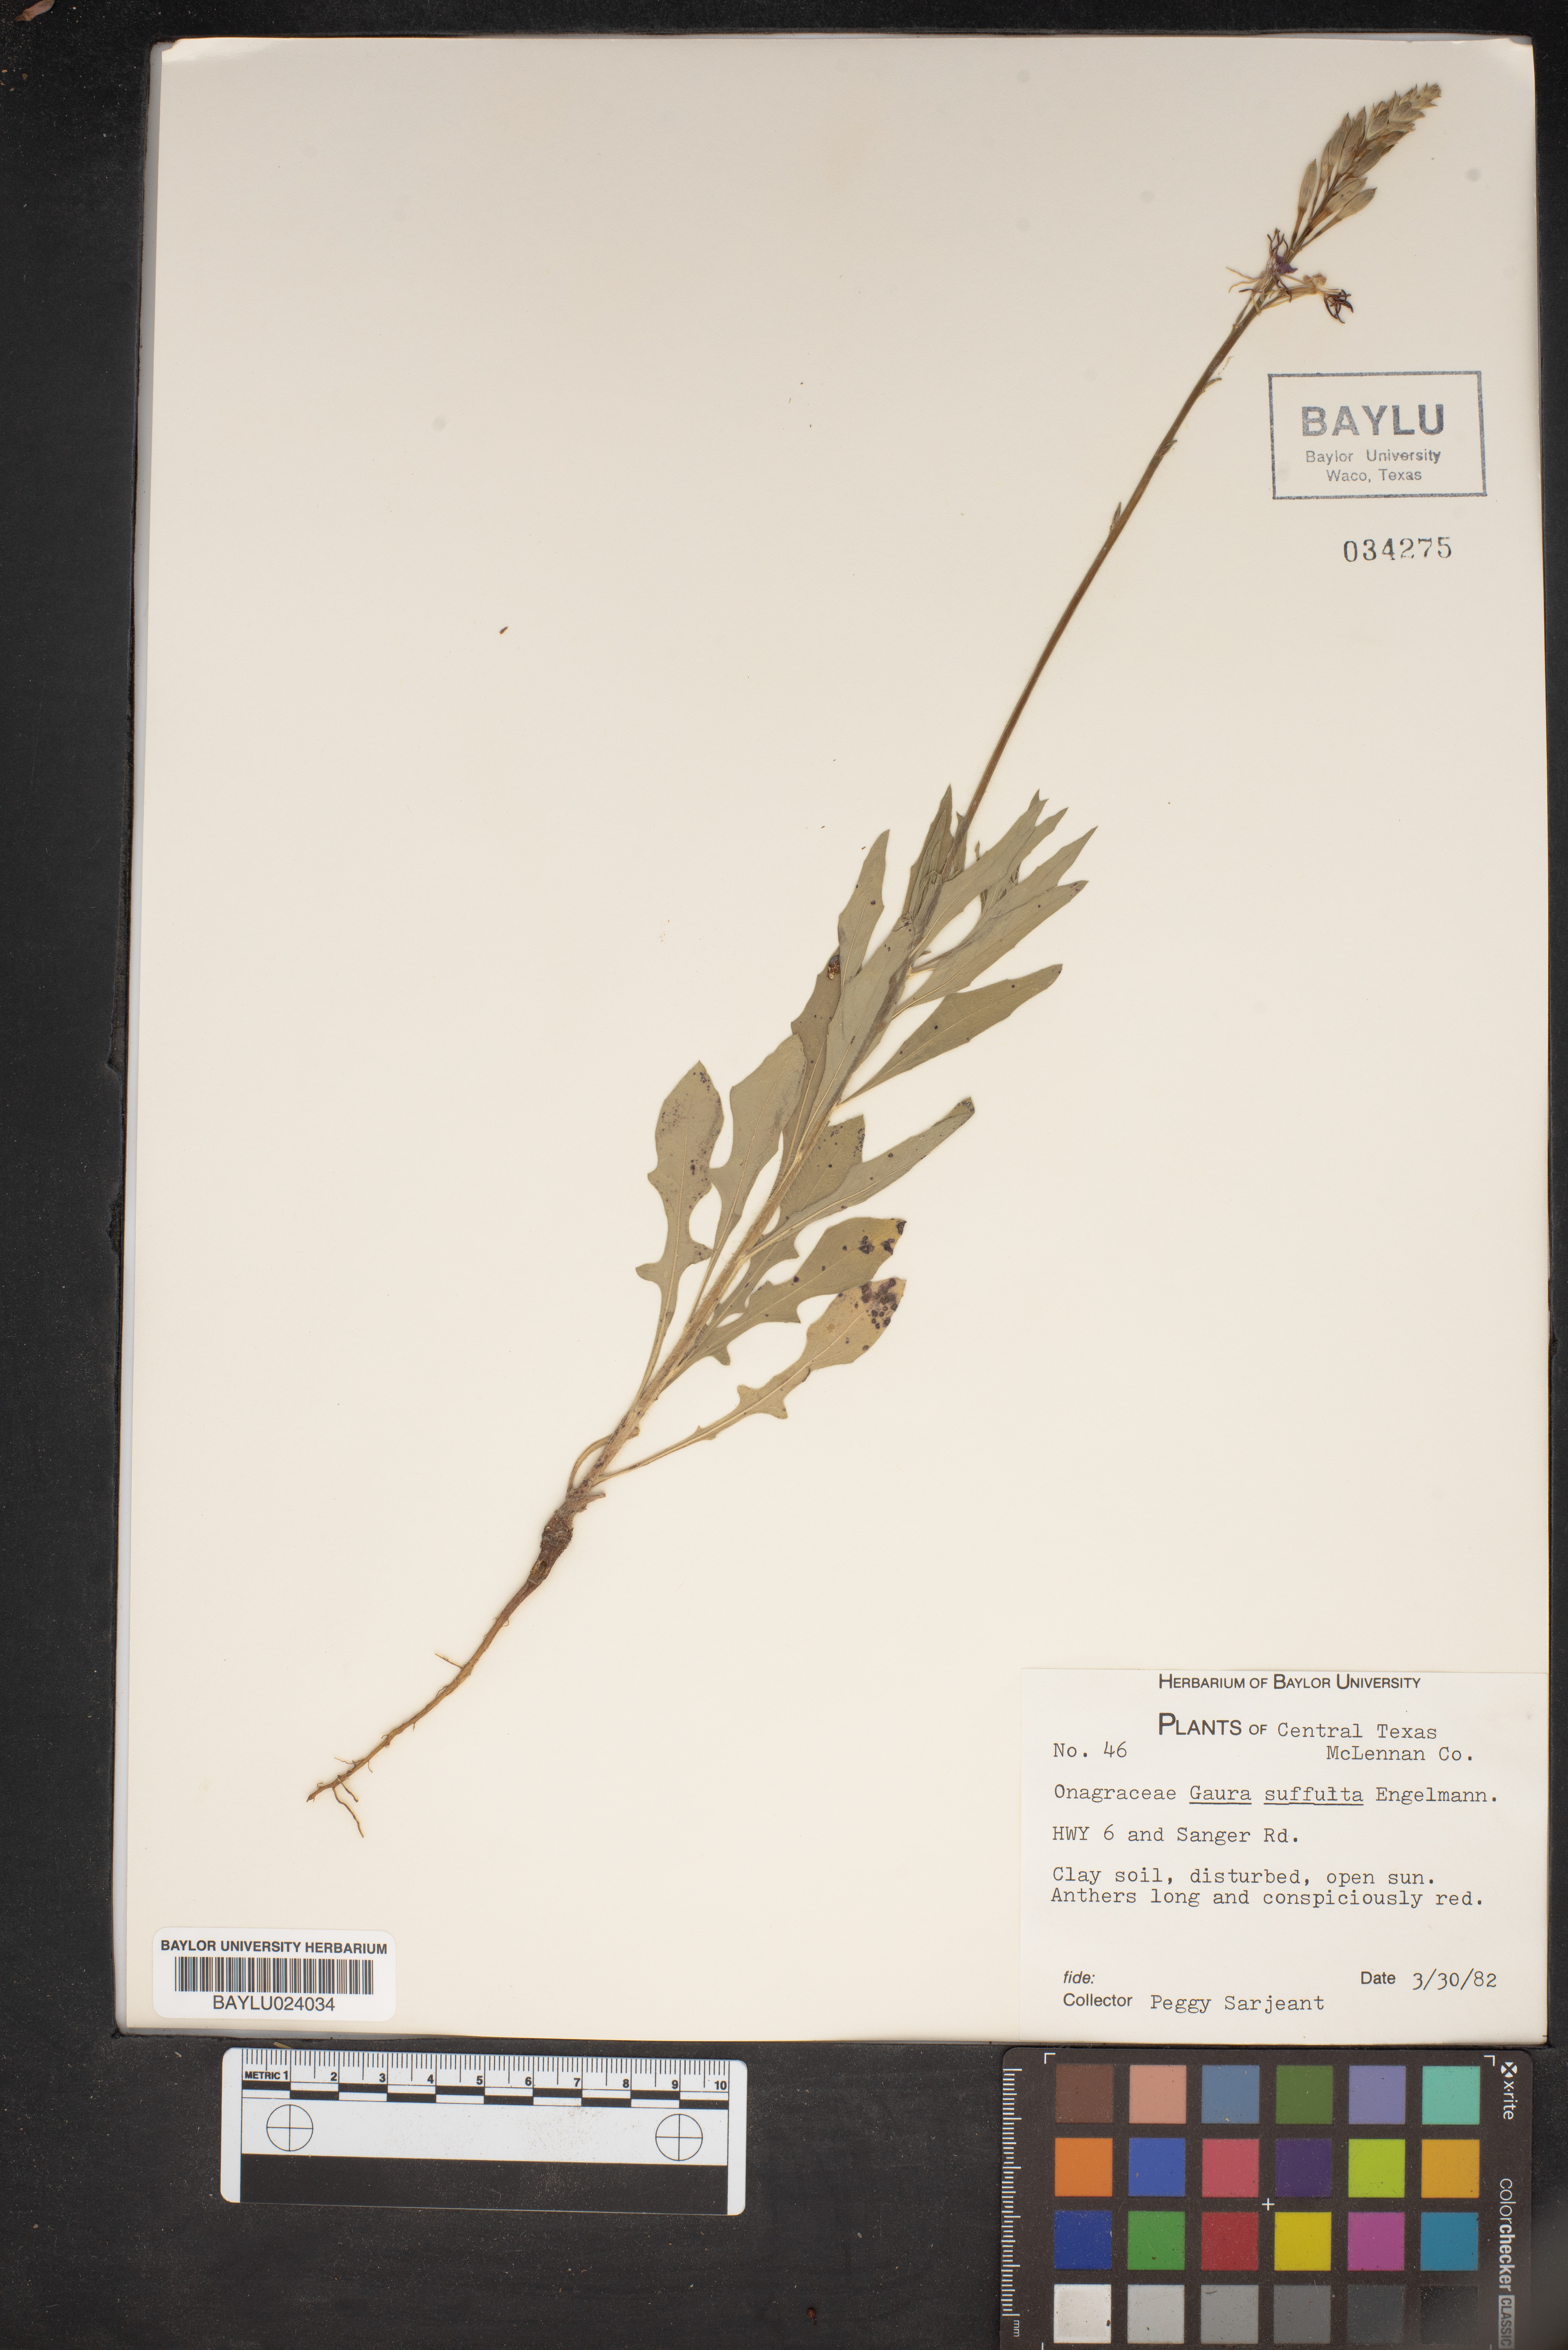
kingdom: Plantae
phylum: Tracheophyta
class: Magnoliopsida
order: Myrtales
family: Onagraceae
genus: Oenothera
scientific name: Oenothera Gaura suffulta
